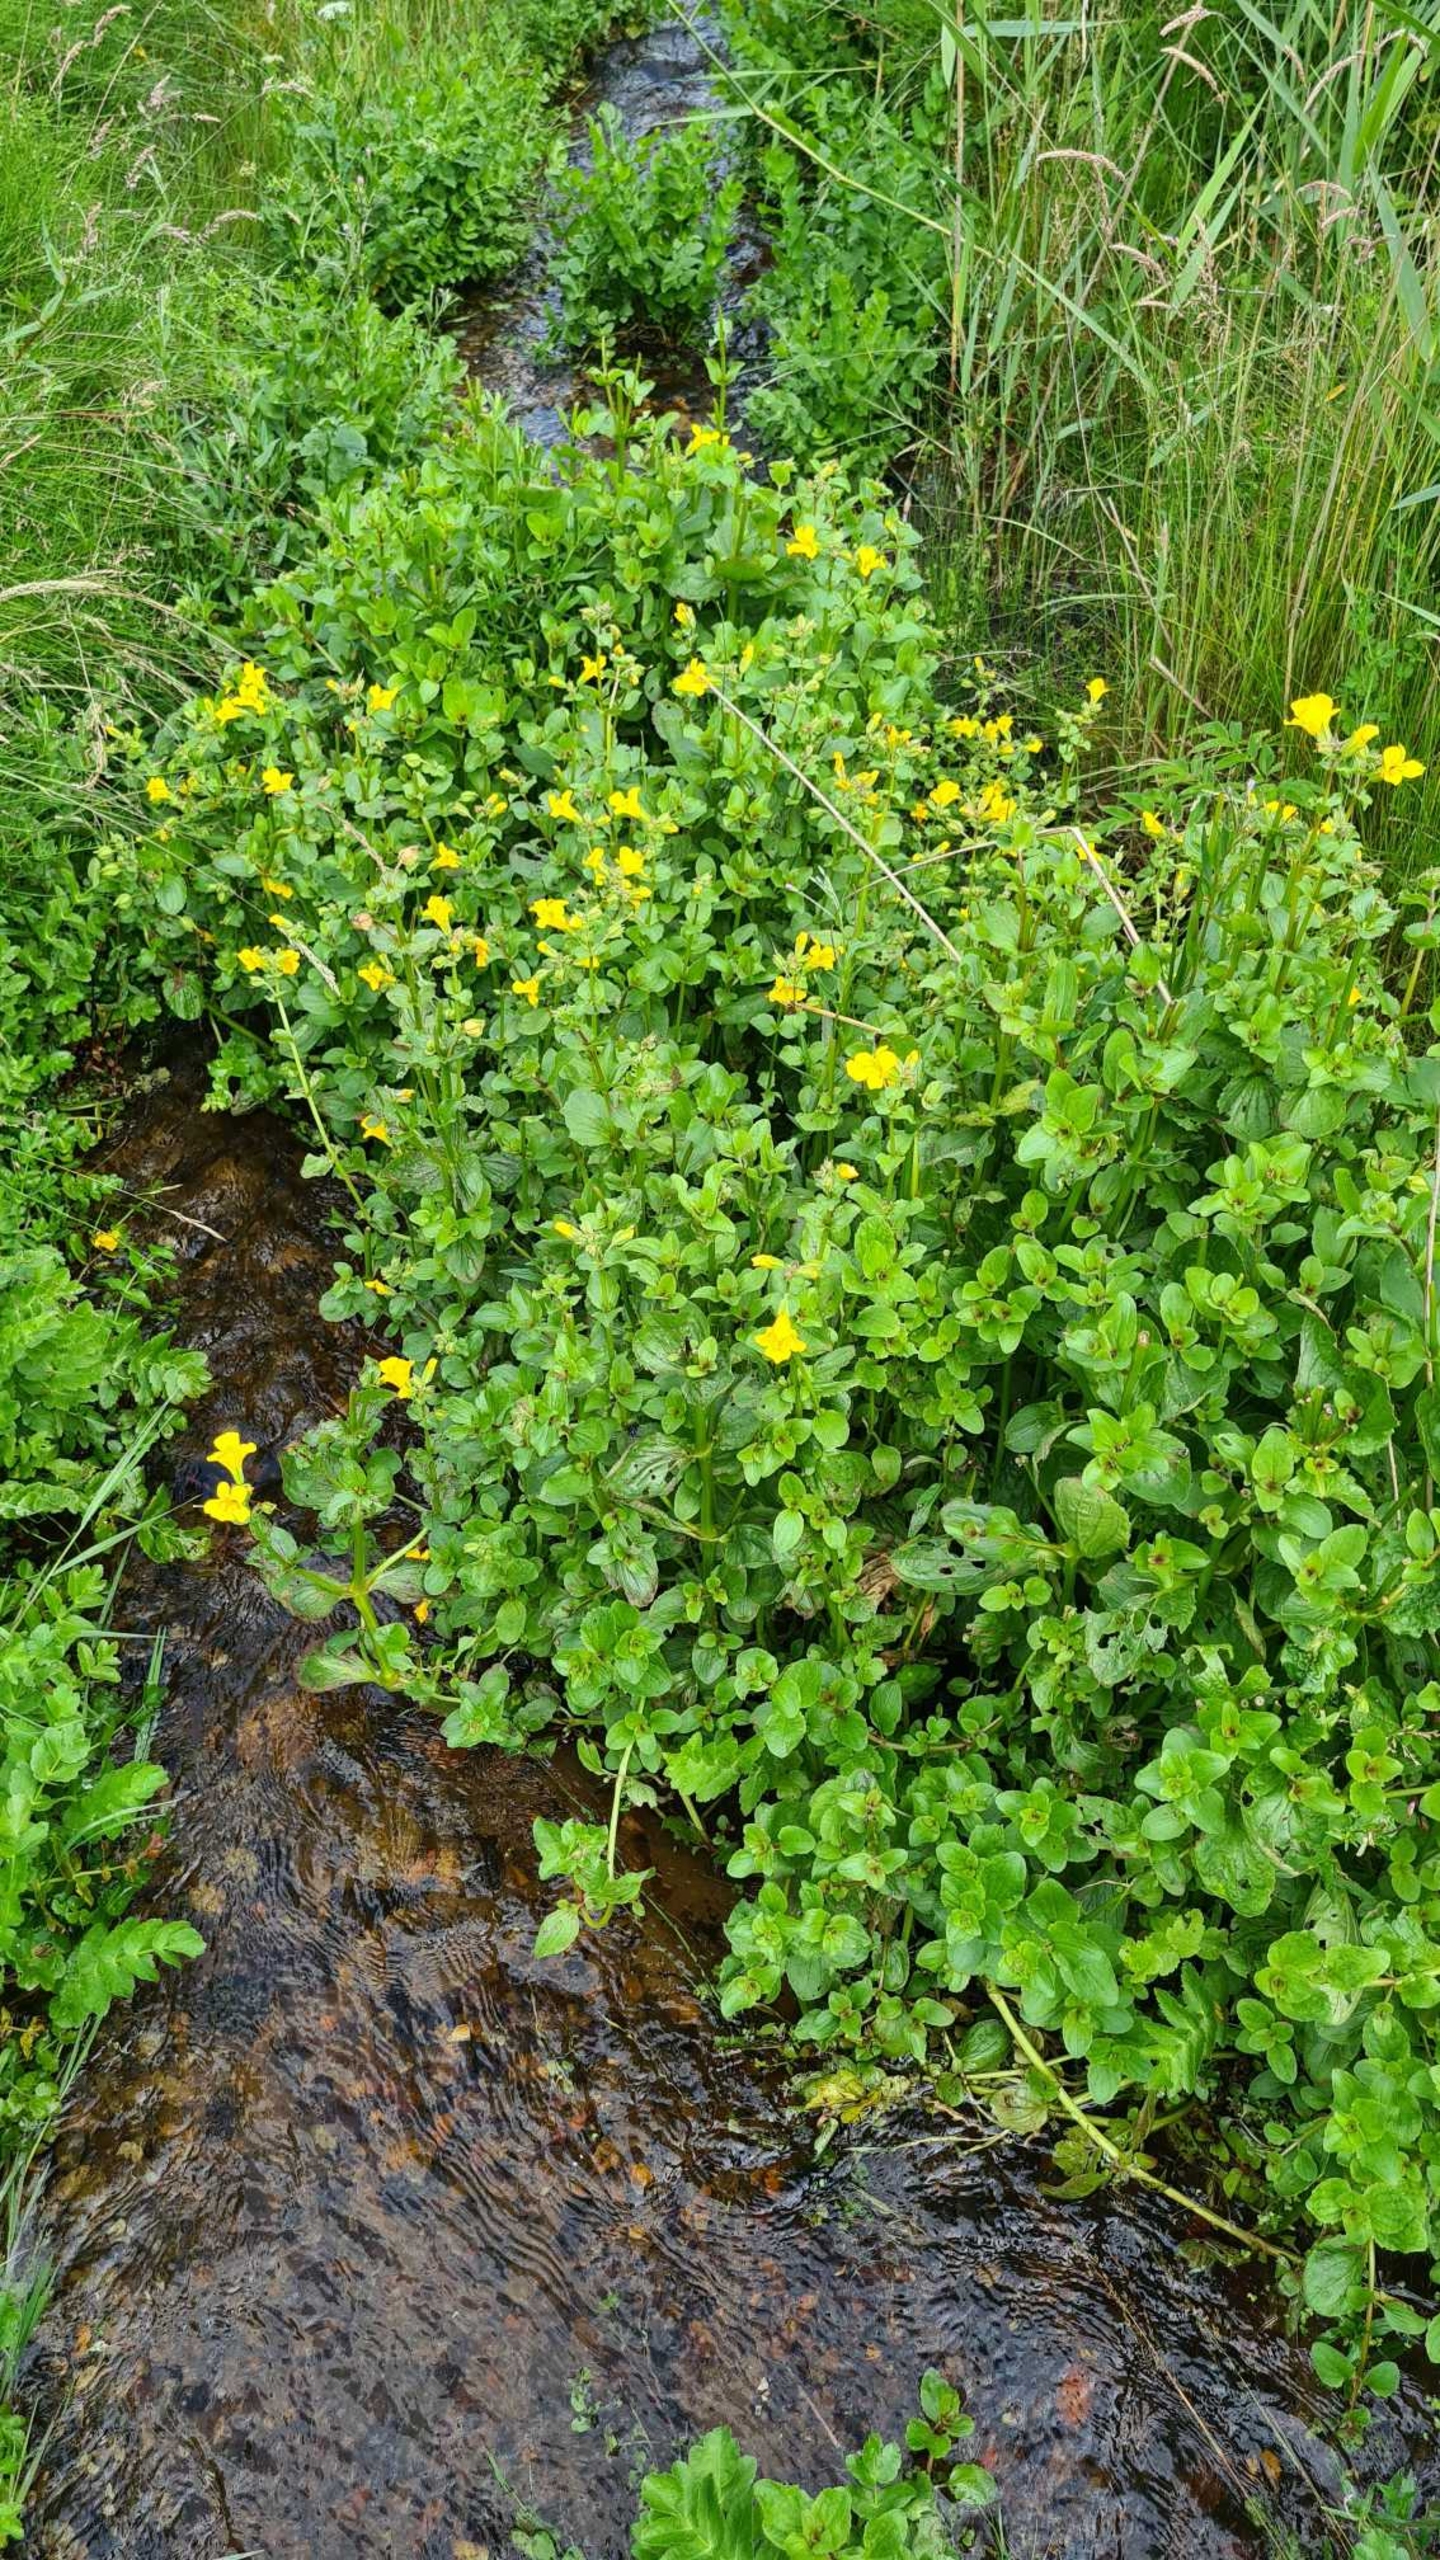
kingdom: Plantae
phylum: Tracheophyta
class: Magnoliopsida
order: Lamiales
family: Phrymaceae
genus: Erythranthe
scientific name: Erythranthe guttata
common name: Abeblomst
